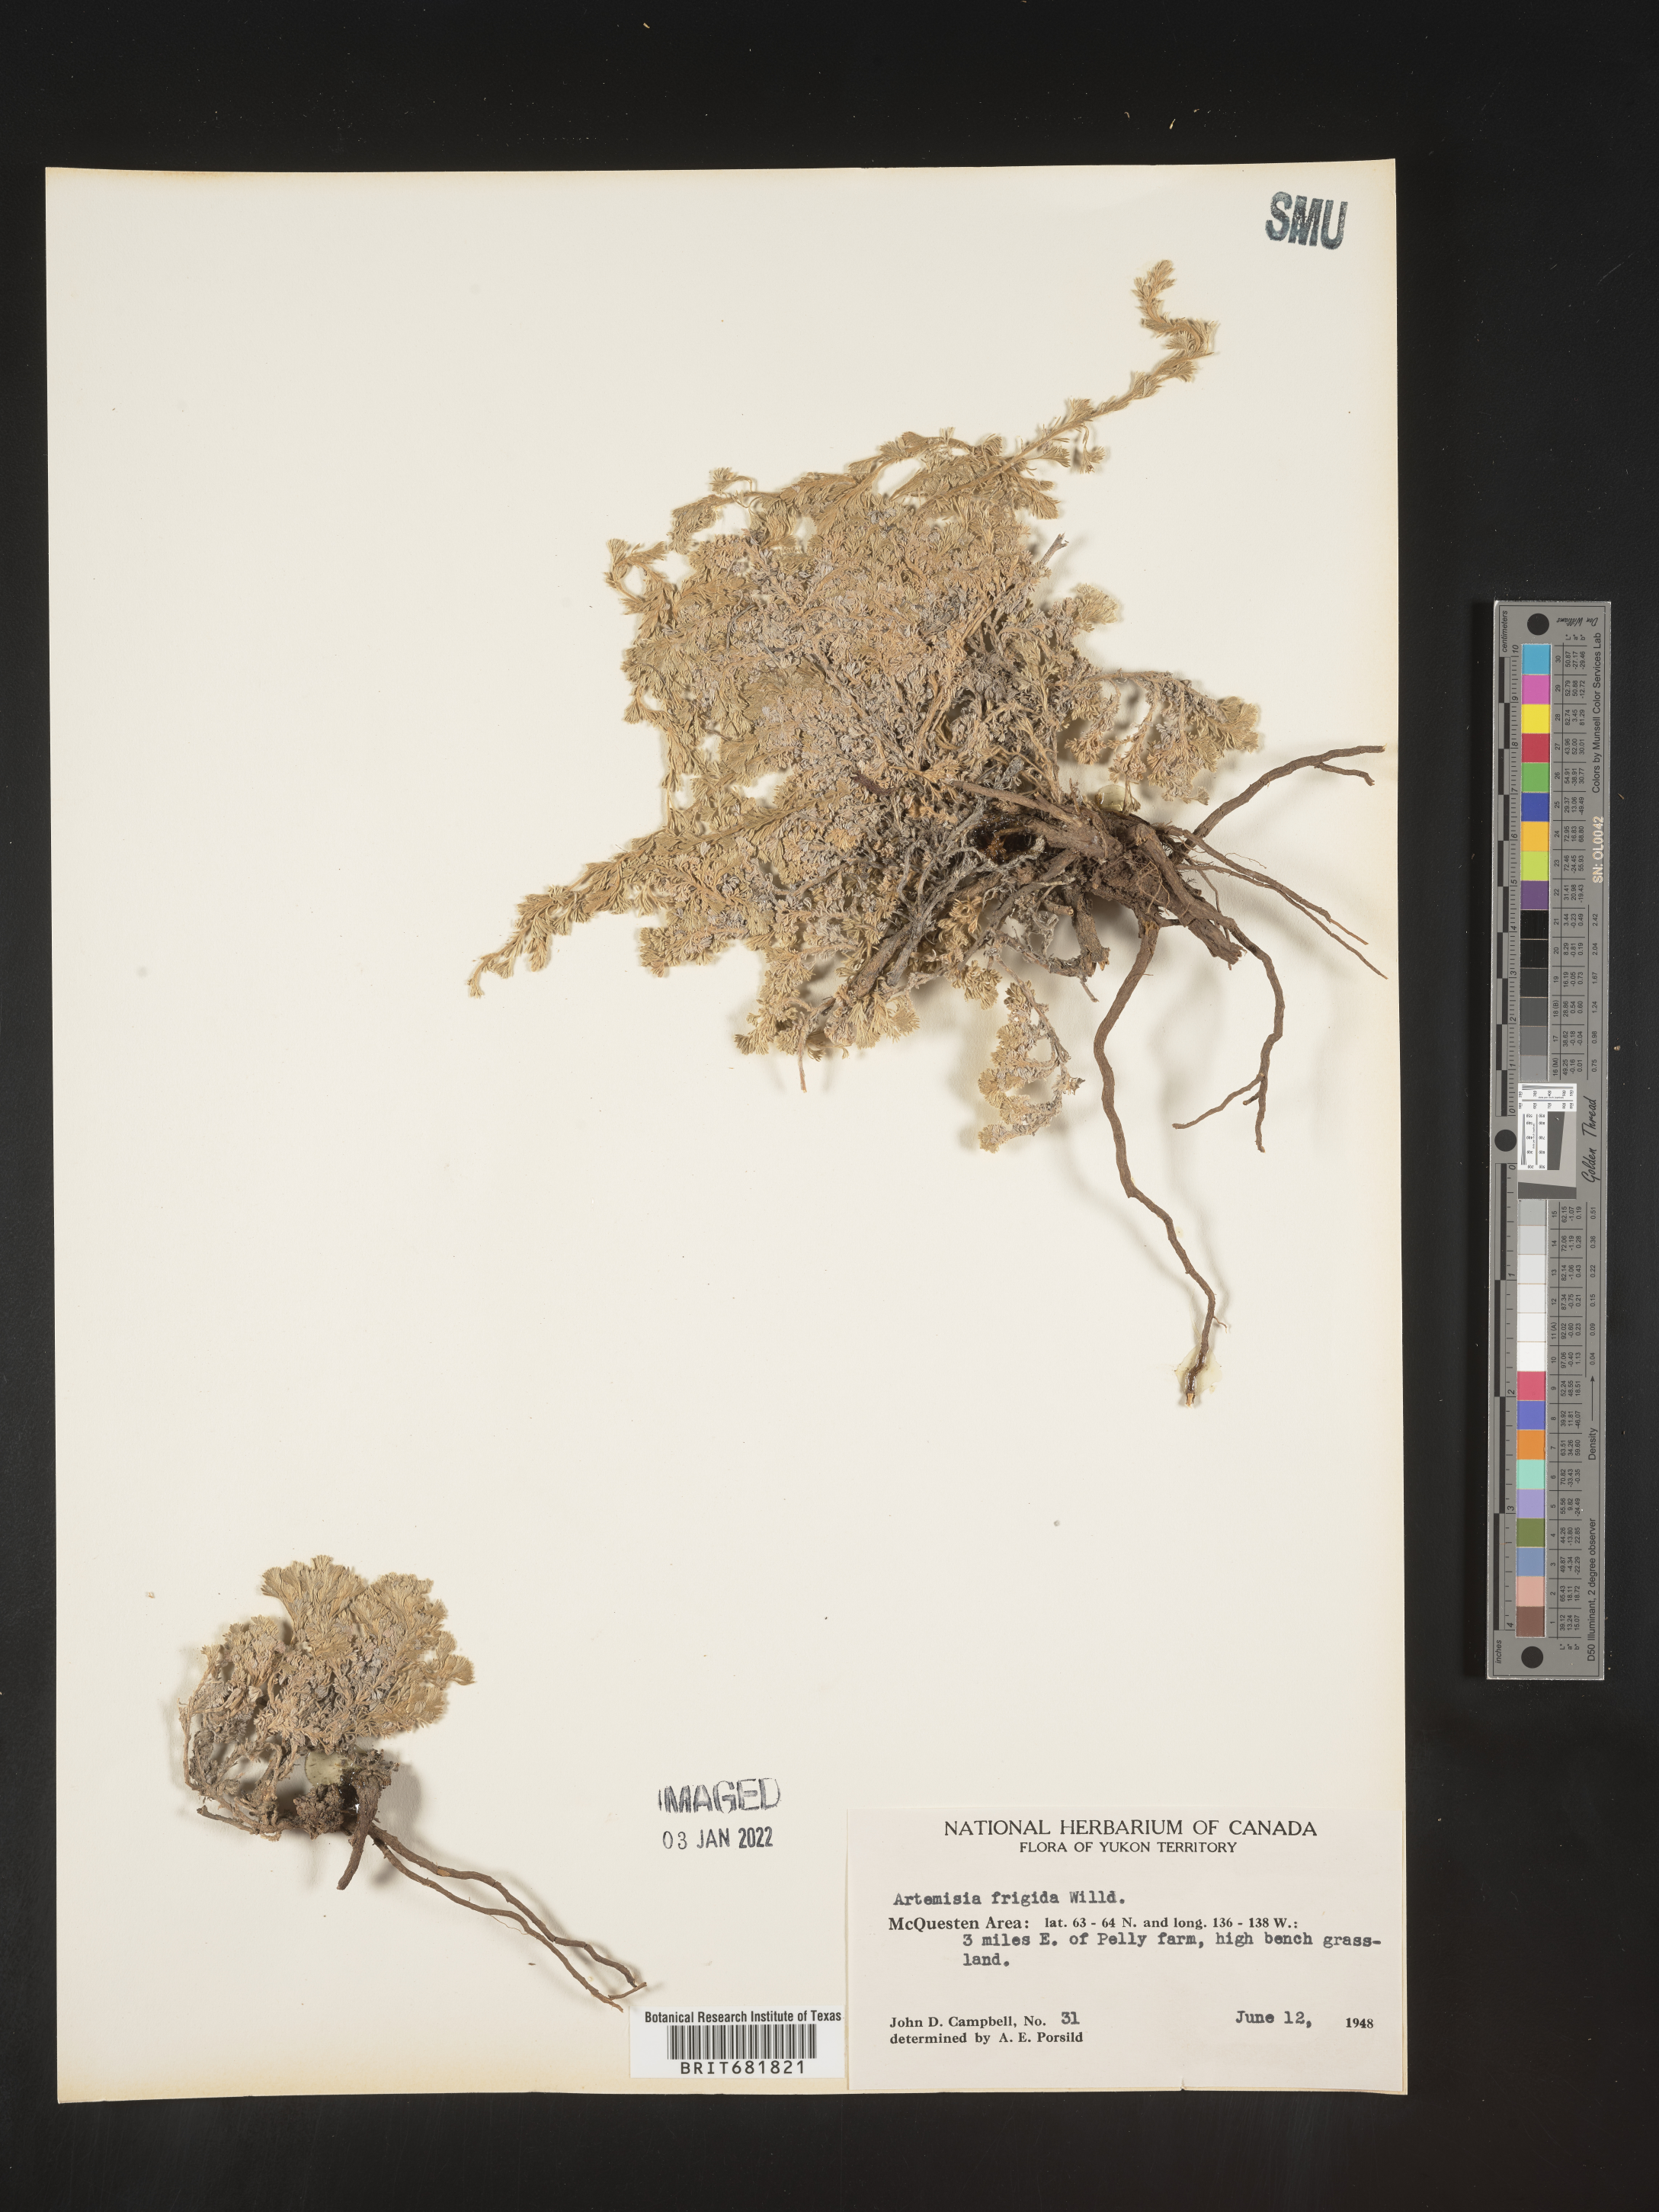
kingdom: Plantae
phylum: Tracheophyta
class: Magnoliopsida
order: Asterales
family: Asteraceae
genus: Artemisia
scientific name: Artemisia frigida
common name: Prairie sagewort
